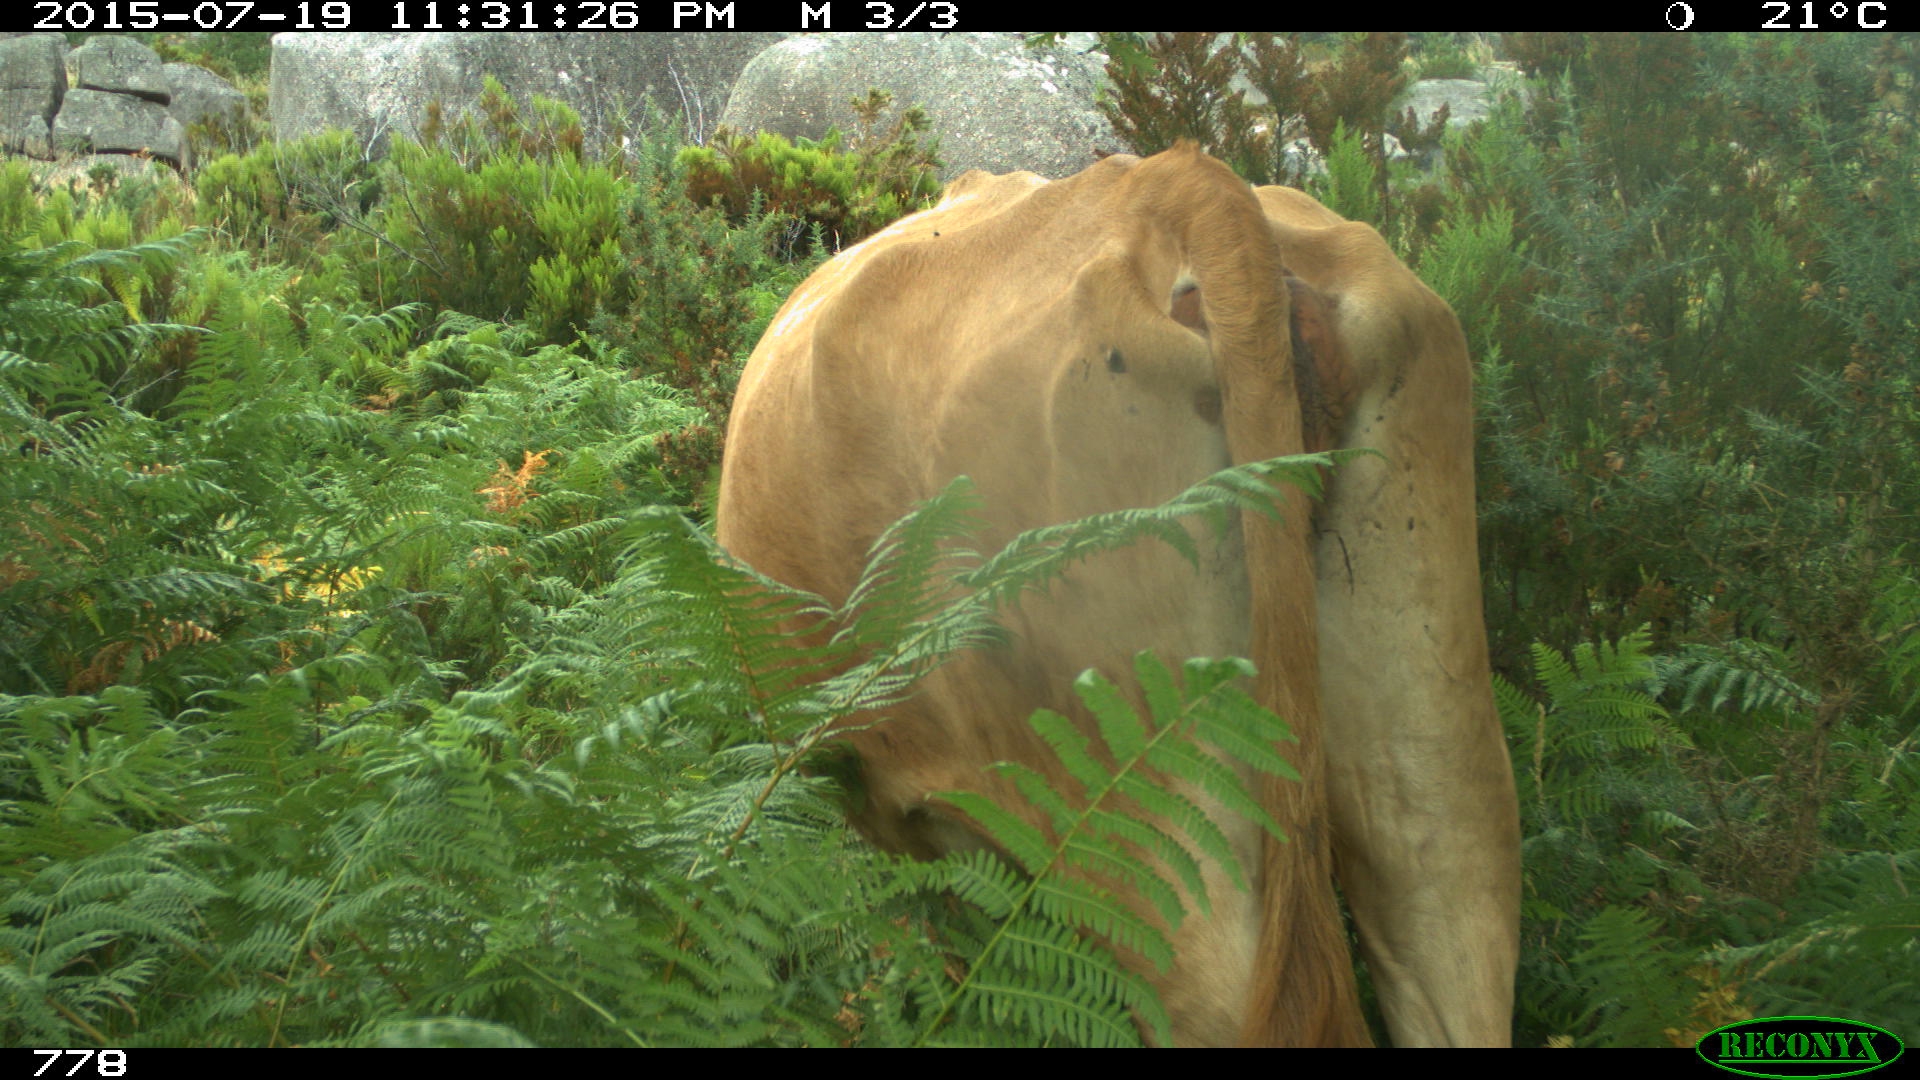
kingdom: Animalia
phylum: Chordata
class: Mammalia
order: Artiodactyla
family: Bovidae
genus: Bos
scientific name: Bos taurus
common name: Domesticated cattle
